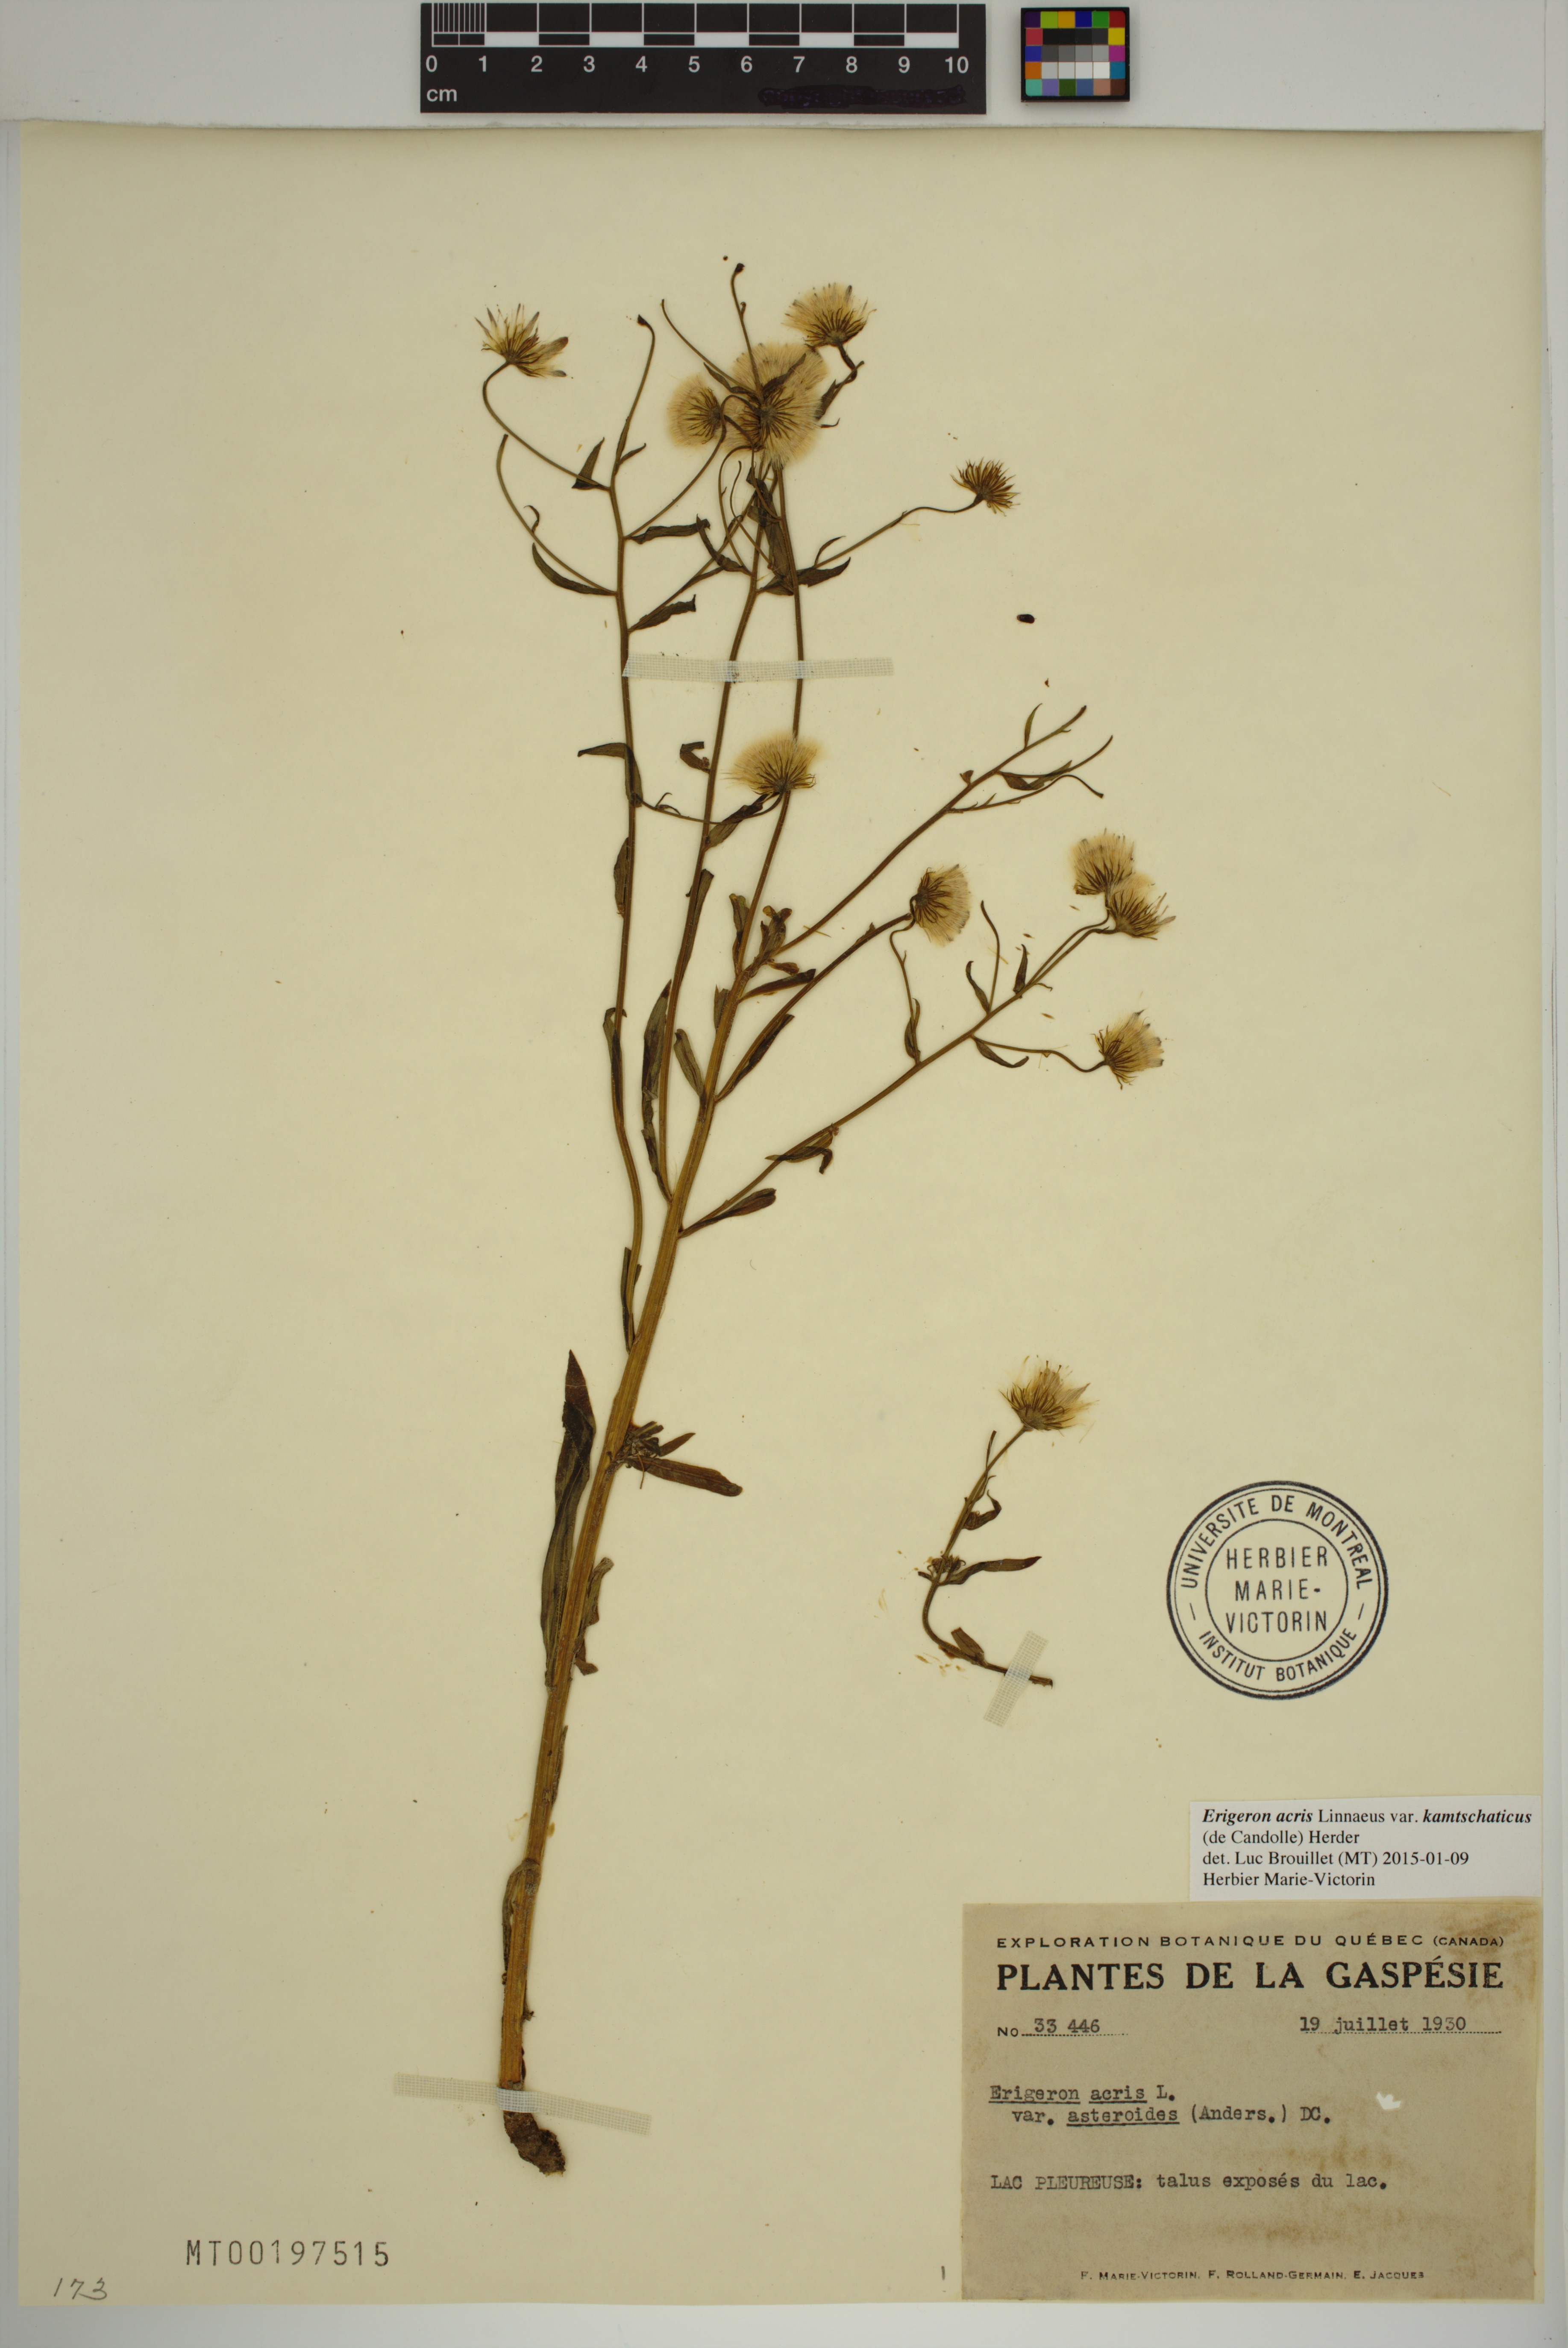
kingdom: Plantae
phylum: Tracheophyta
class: Magnoliopsida
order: Asterales
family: Asteraceae
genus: Erigeron
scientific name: Erigeron kamtschaticus
